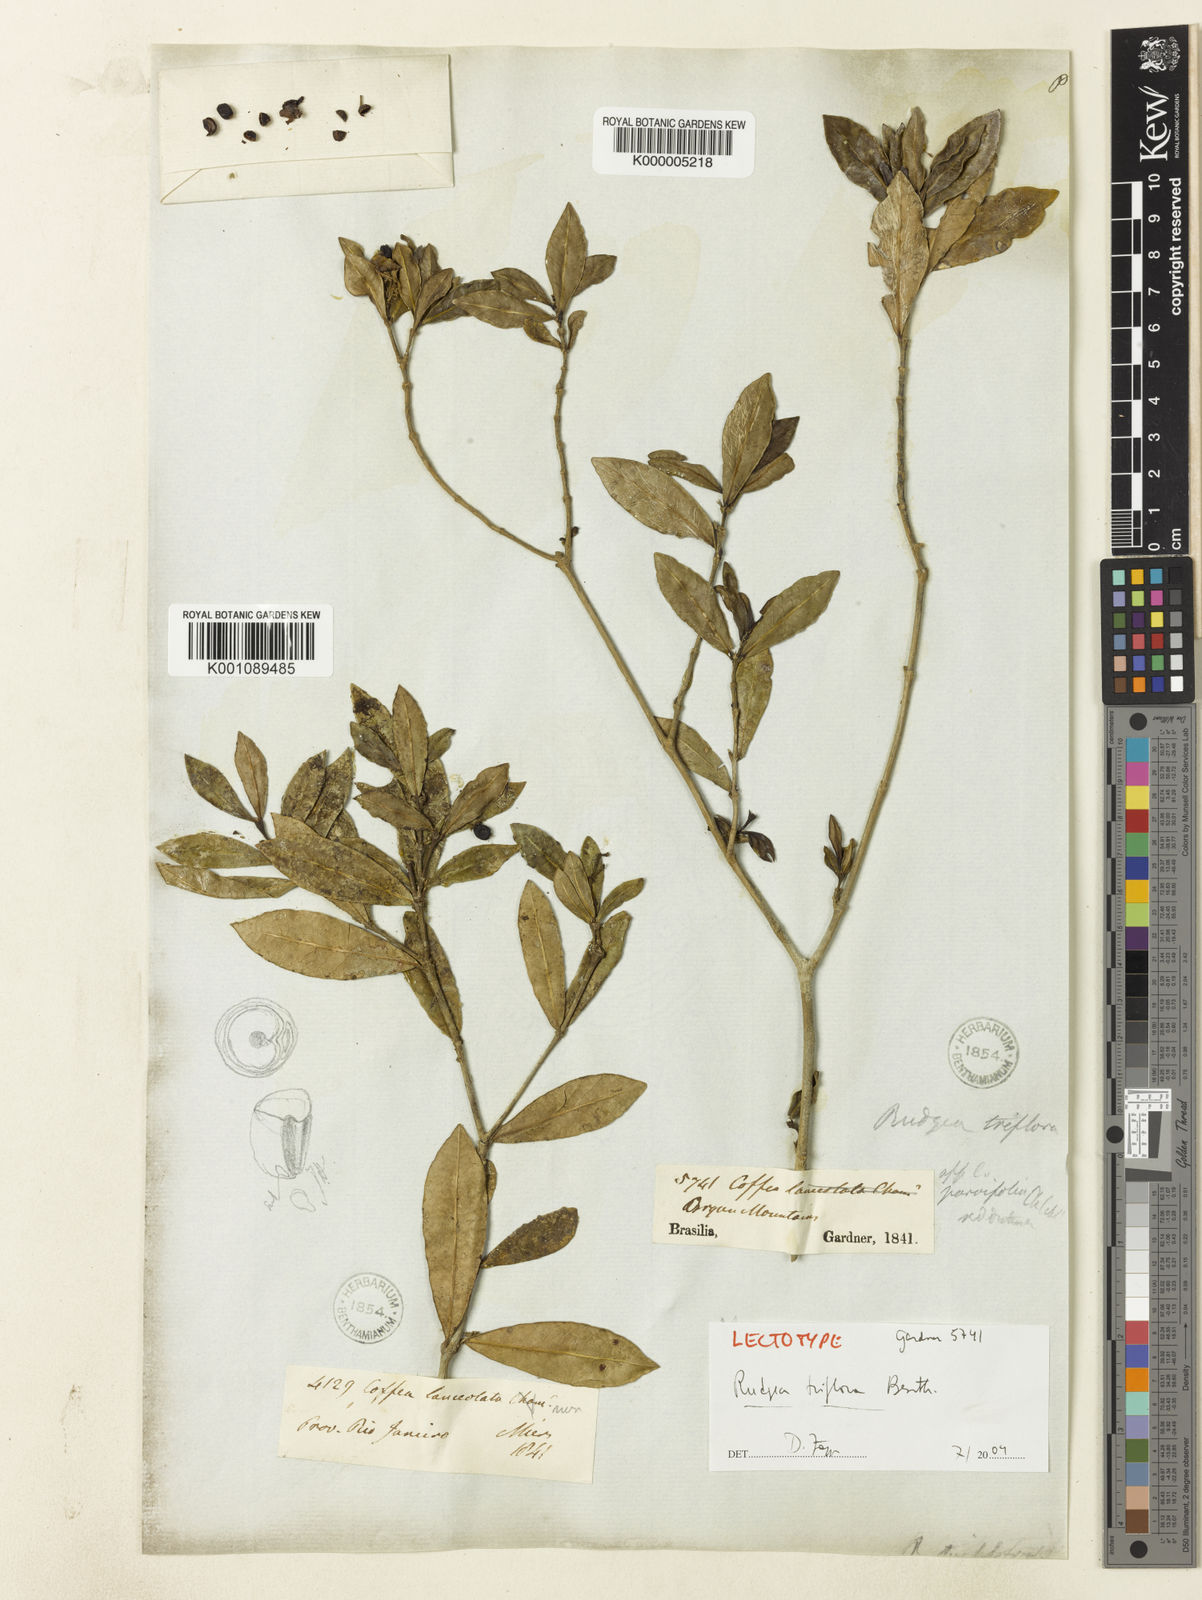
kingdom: Plantae
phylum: Tracheophyta
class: Magnoliopsida
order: Gentianales
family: Rubiaceae
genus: Rudgea
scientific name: Rudgea triflora
